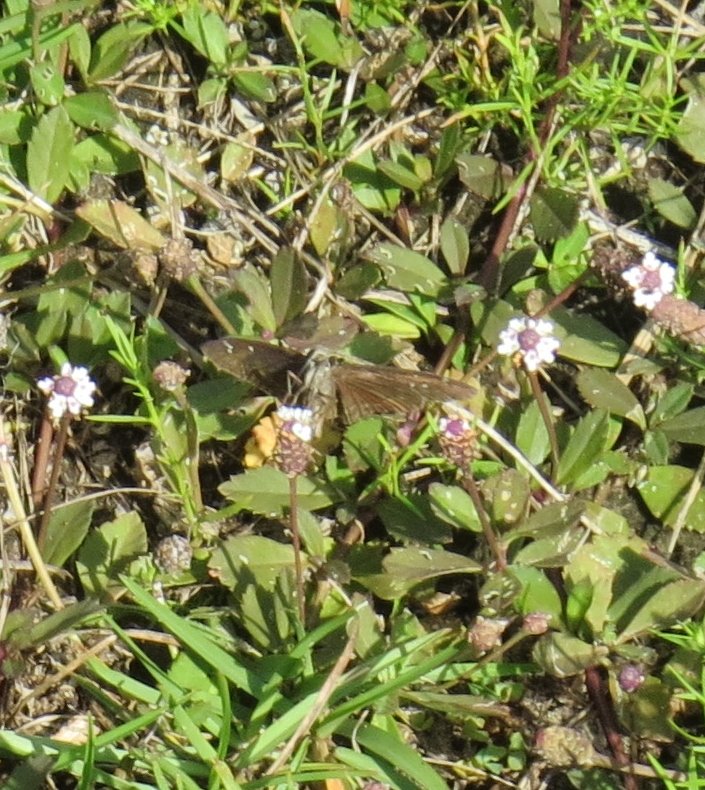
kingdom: Animalia
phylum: Arthropoda
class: Insecta
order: Lepidoptera
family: Hesperiidae
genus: Gesta
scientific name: Gesta
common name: Horace's Duskywing
